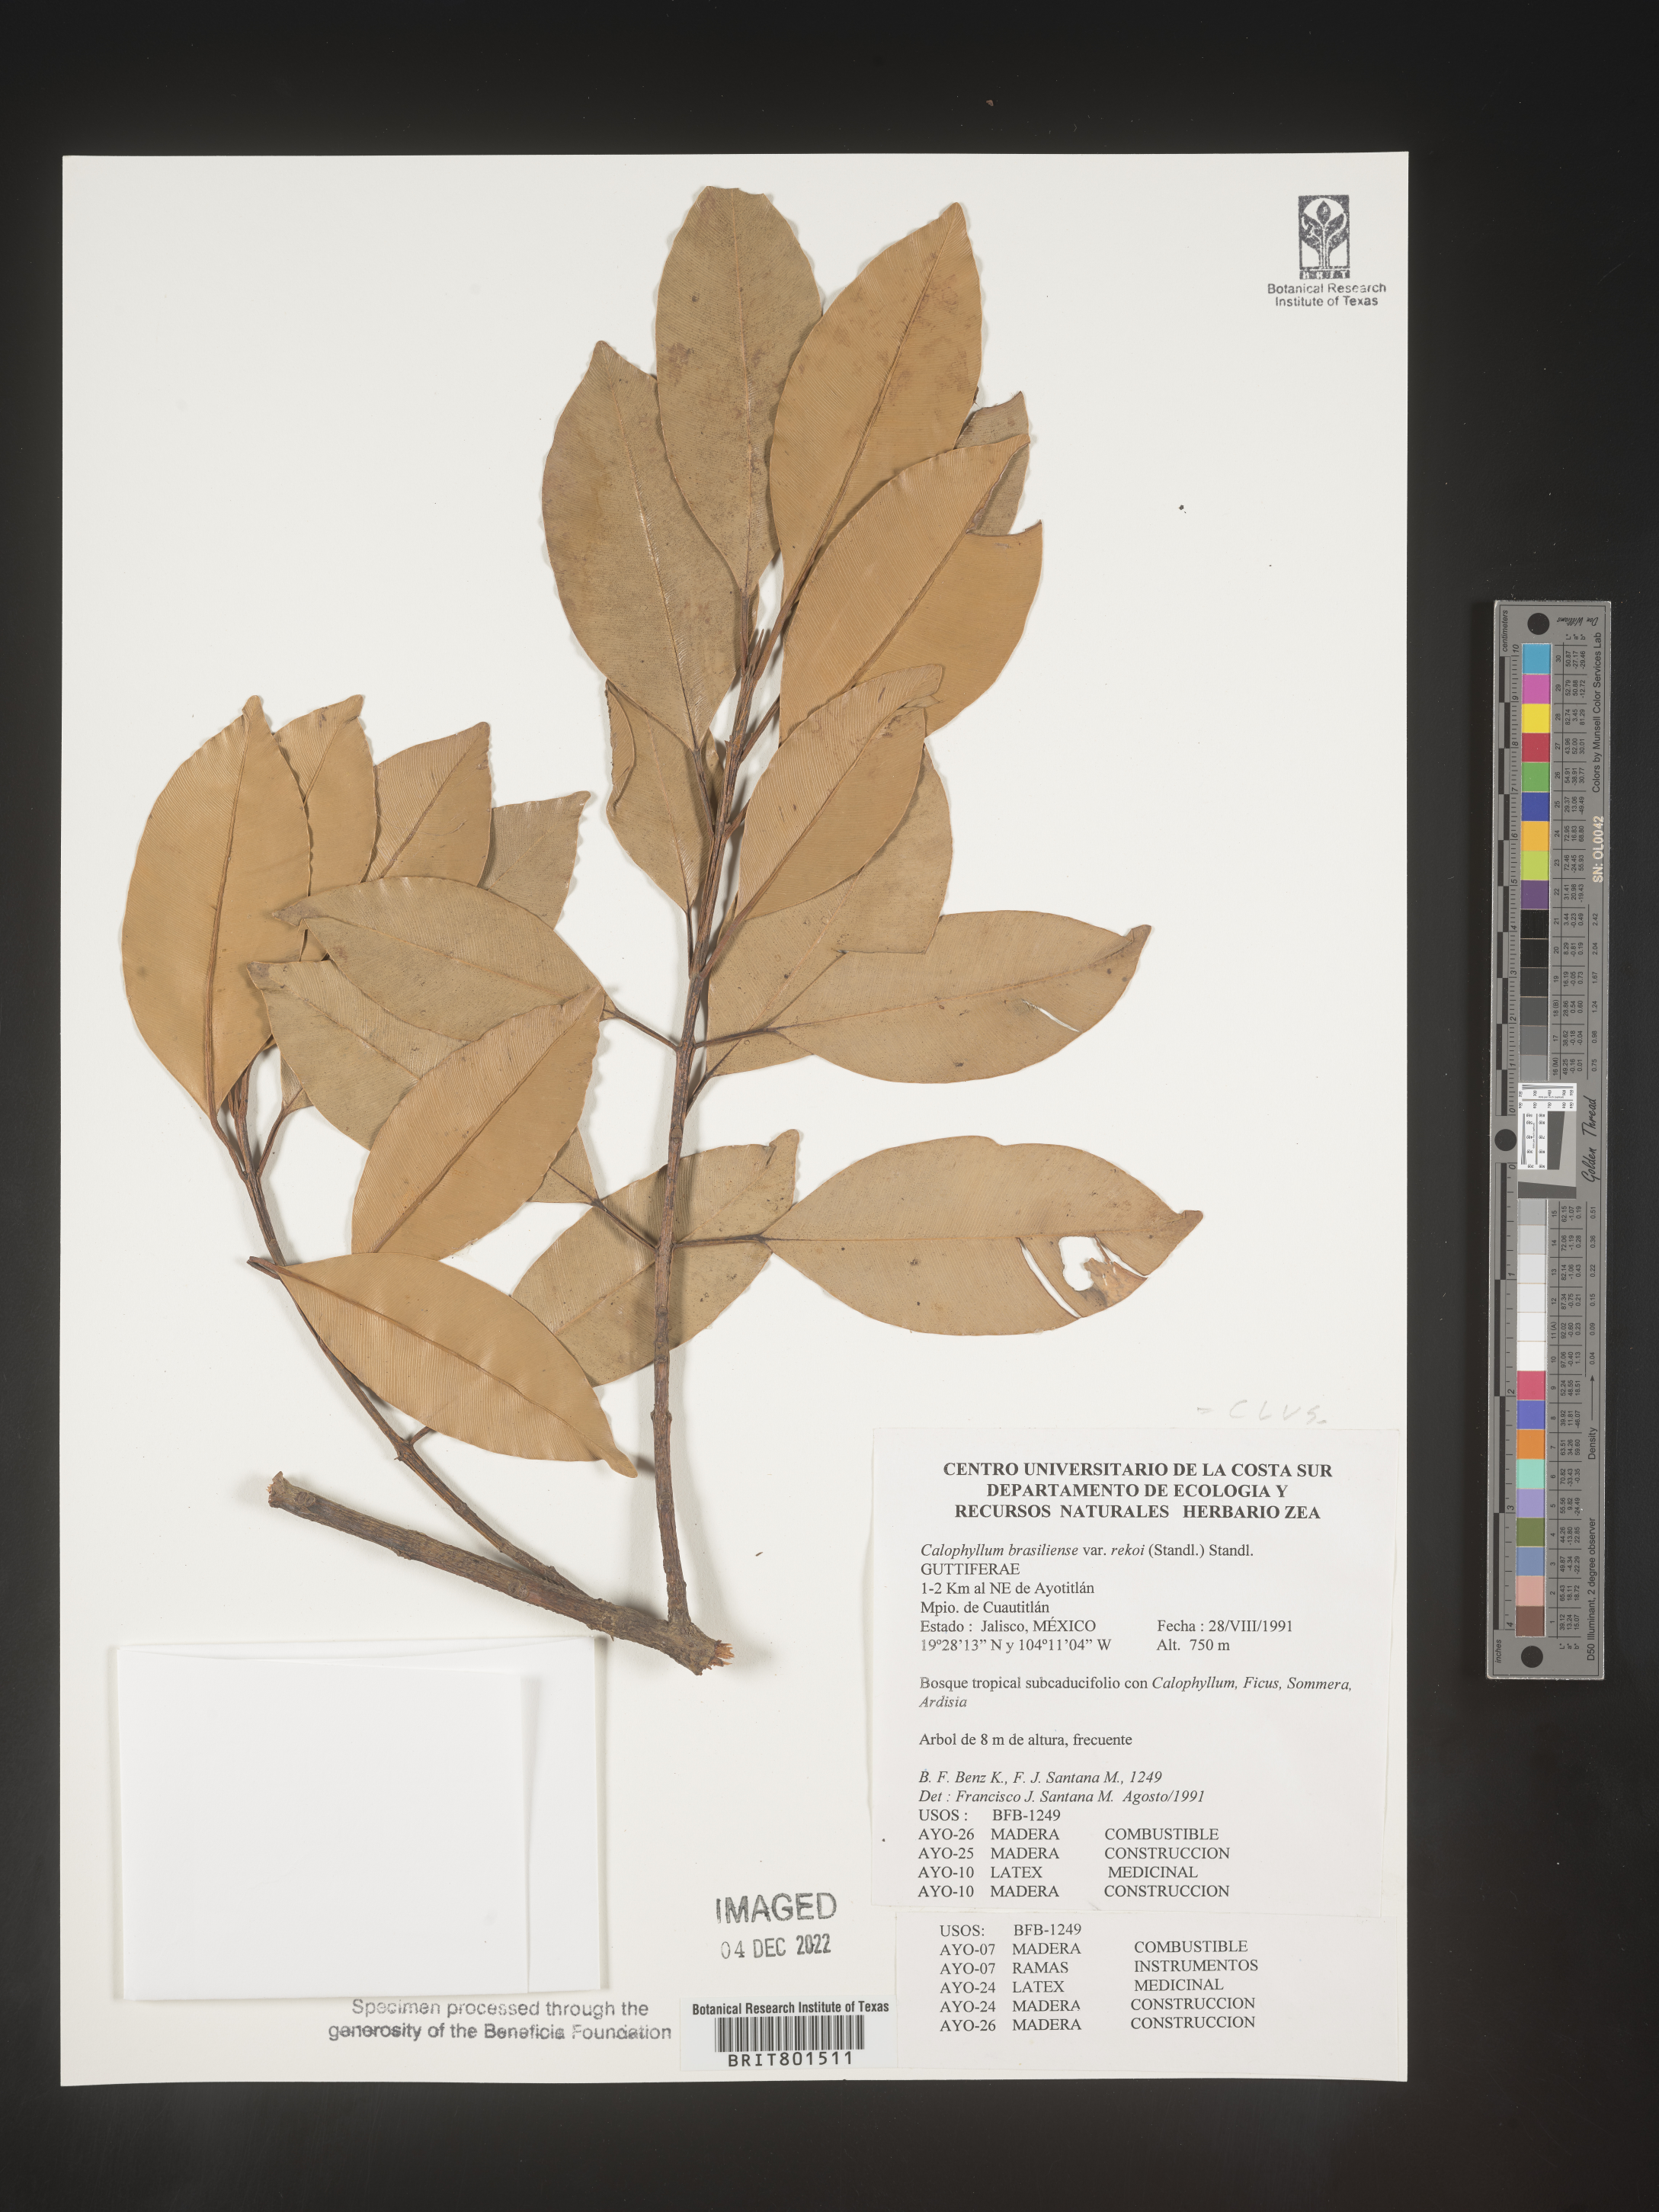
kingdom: Plantae
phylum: Tracheophyta
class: Magnoliopsida
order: Malpighiales
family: Calophyllaceae
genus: Calophyllum
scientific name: Calophyllum
